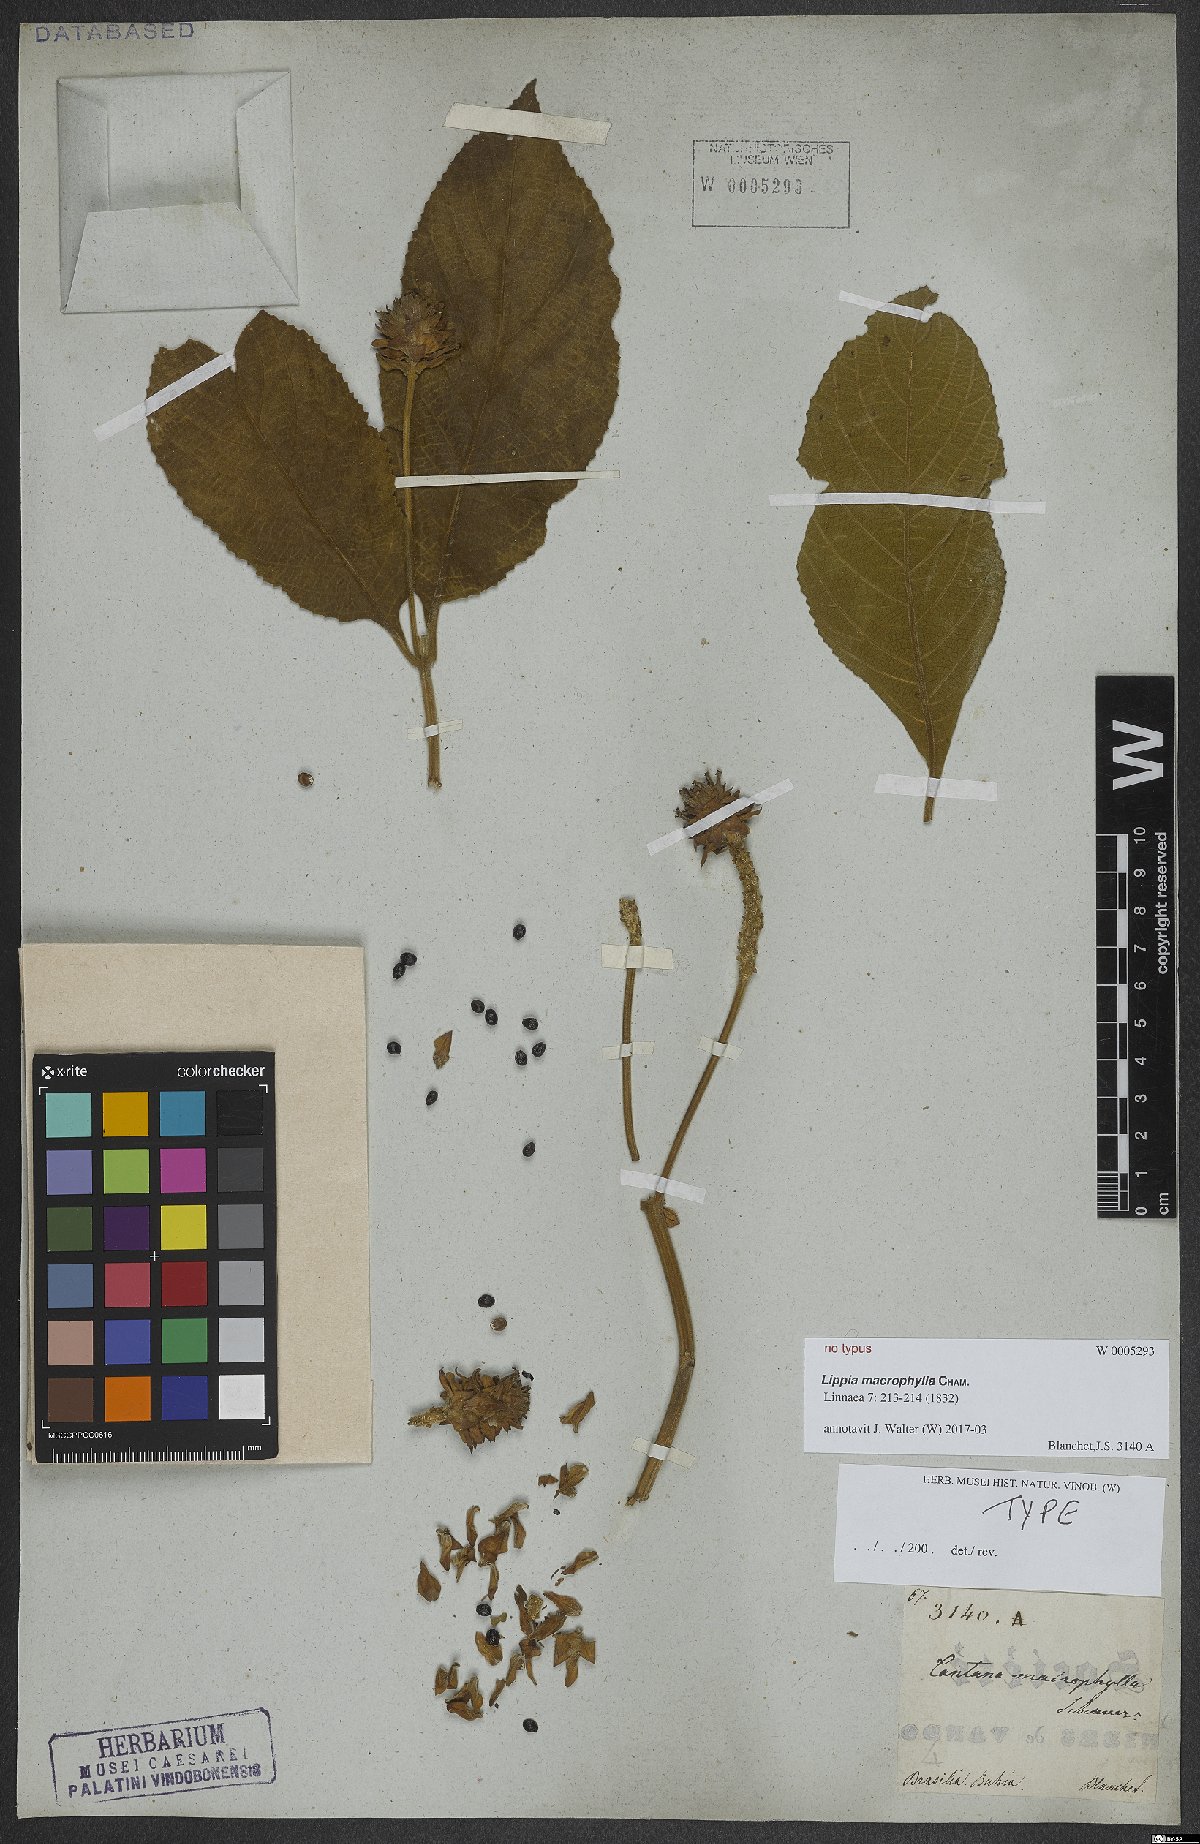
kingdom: Plantae
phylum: Tracheophyta
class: Magnoliopsida
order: Lamiales
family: Verbenaceae
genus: Lippia
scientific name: Lippia macrophylla
